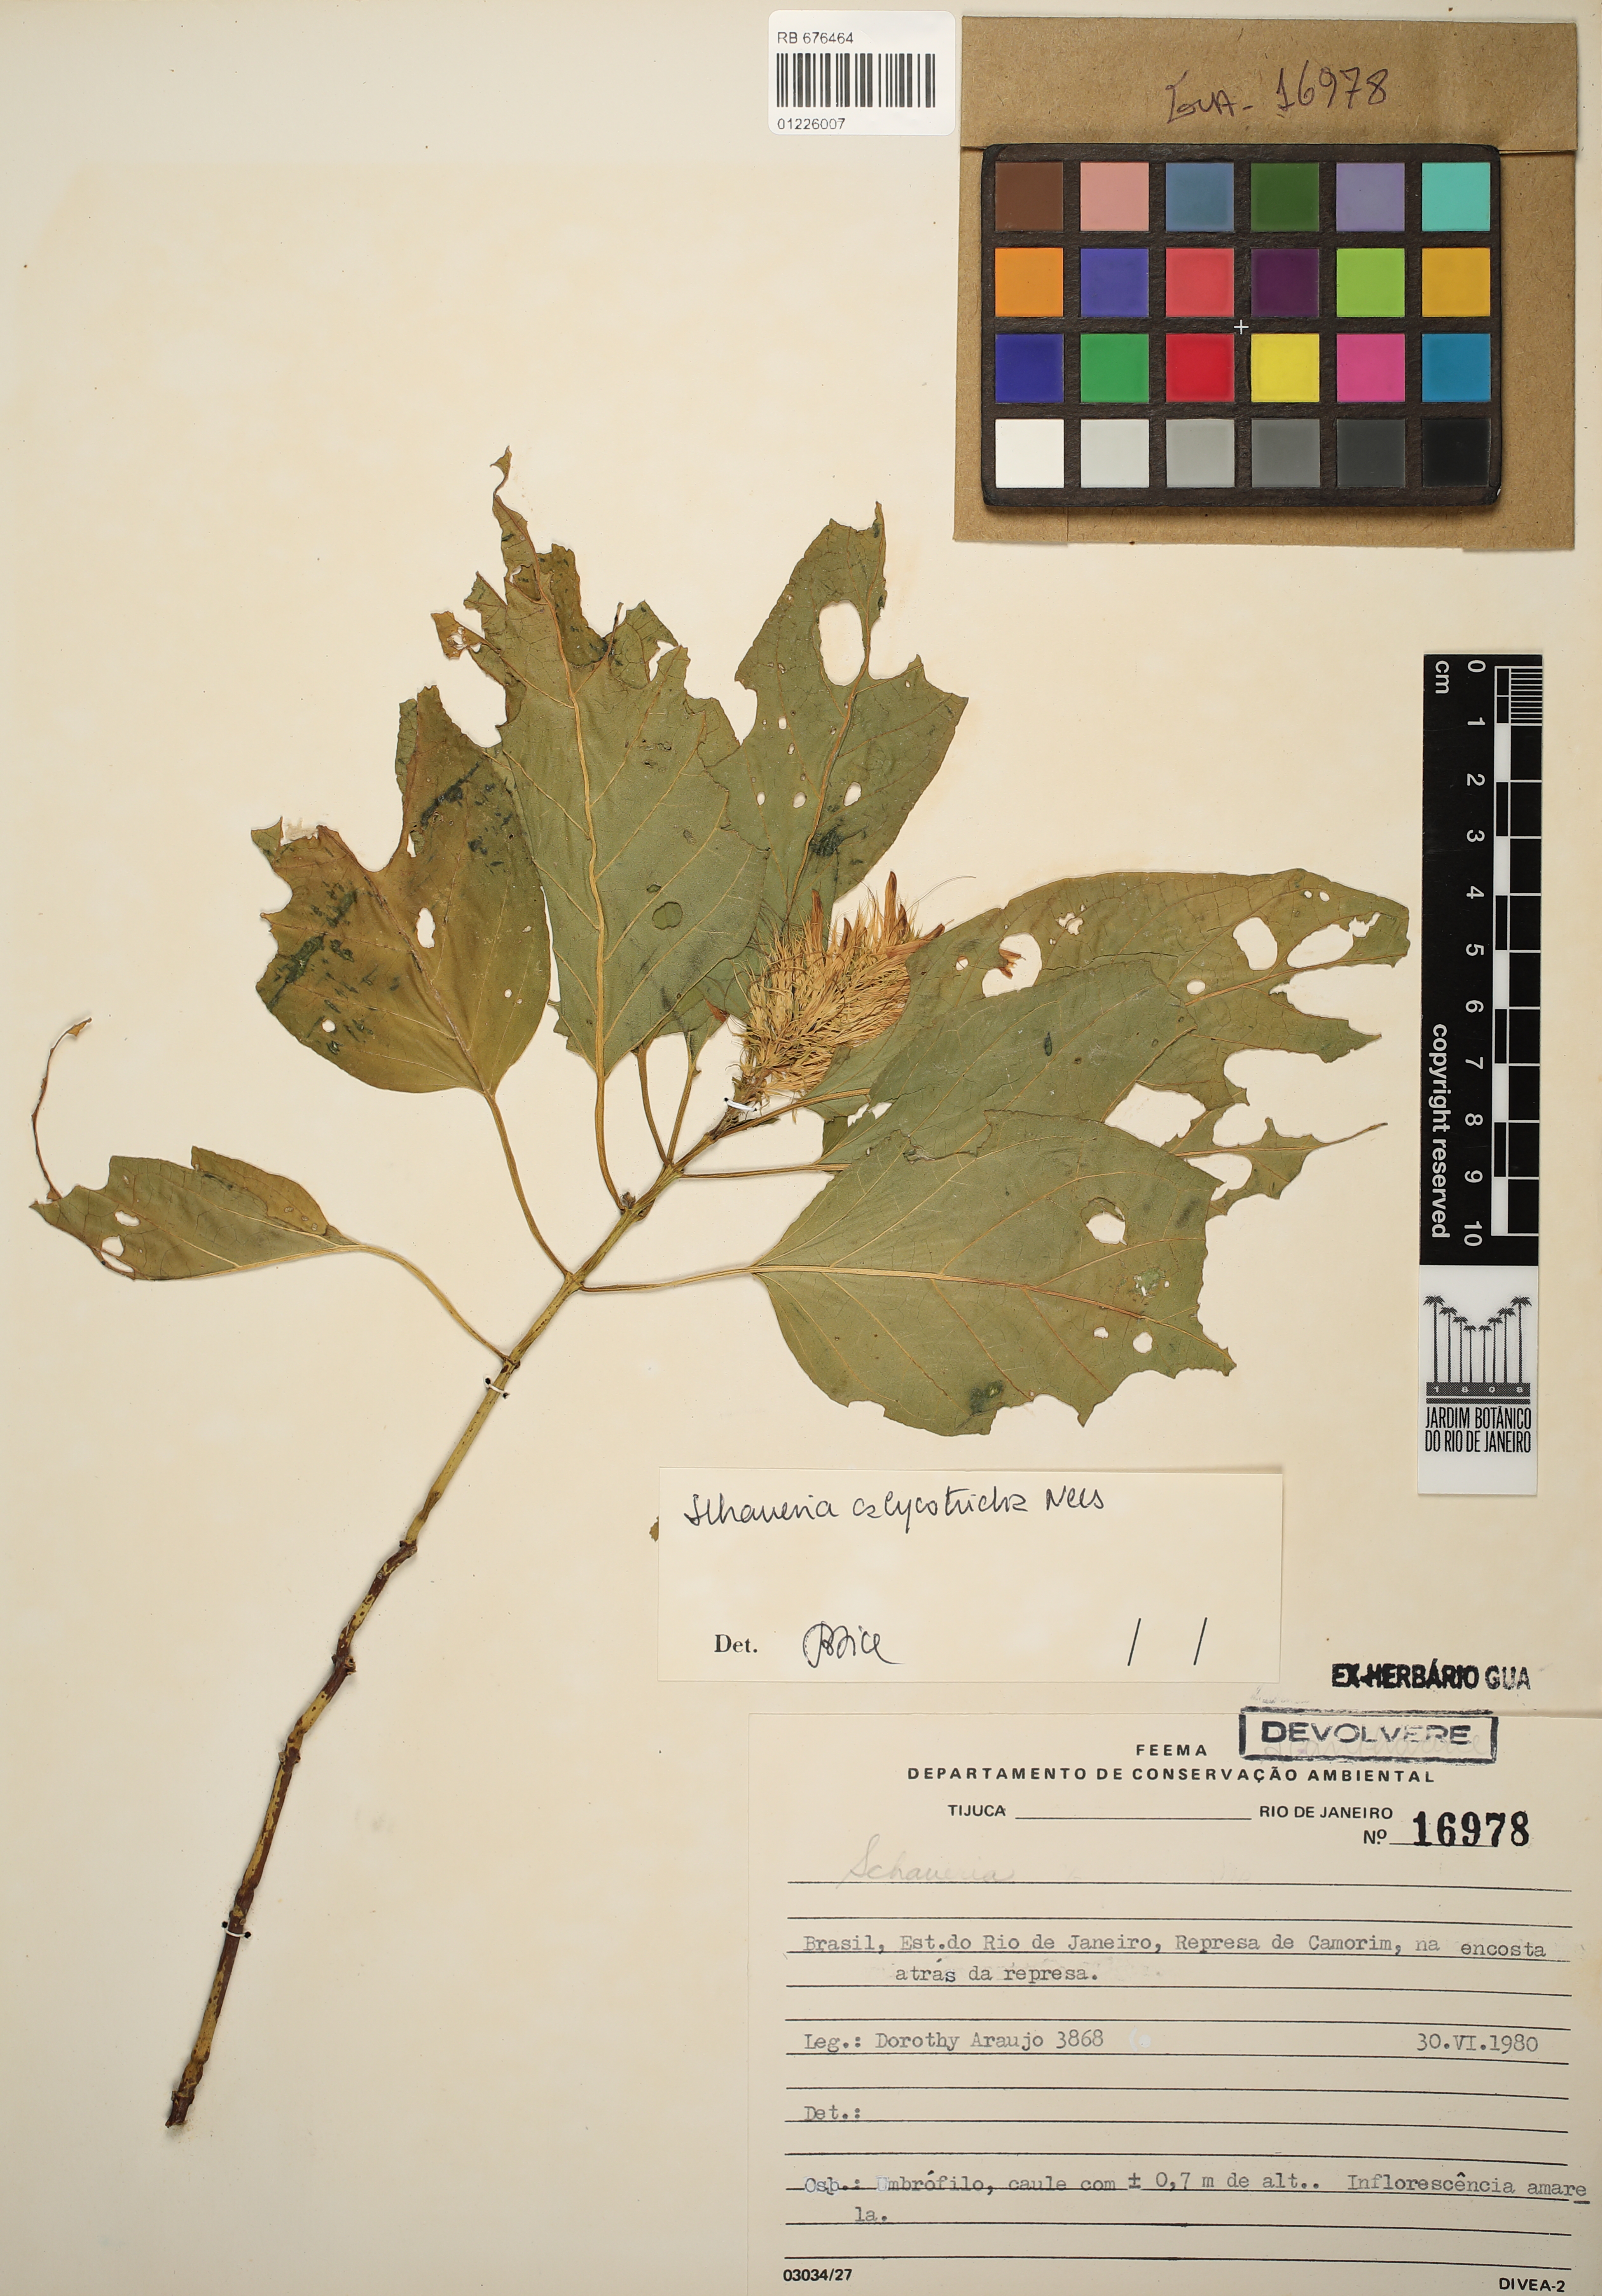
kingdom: Plantae
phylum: Tracheophyta
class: Magnoliopsida
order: Lamiales
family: Acanthaceae
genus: Schaueria
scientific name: Schaueria calytricha
